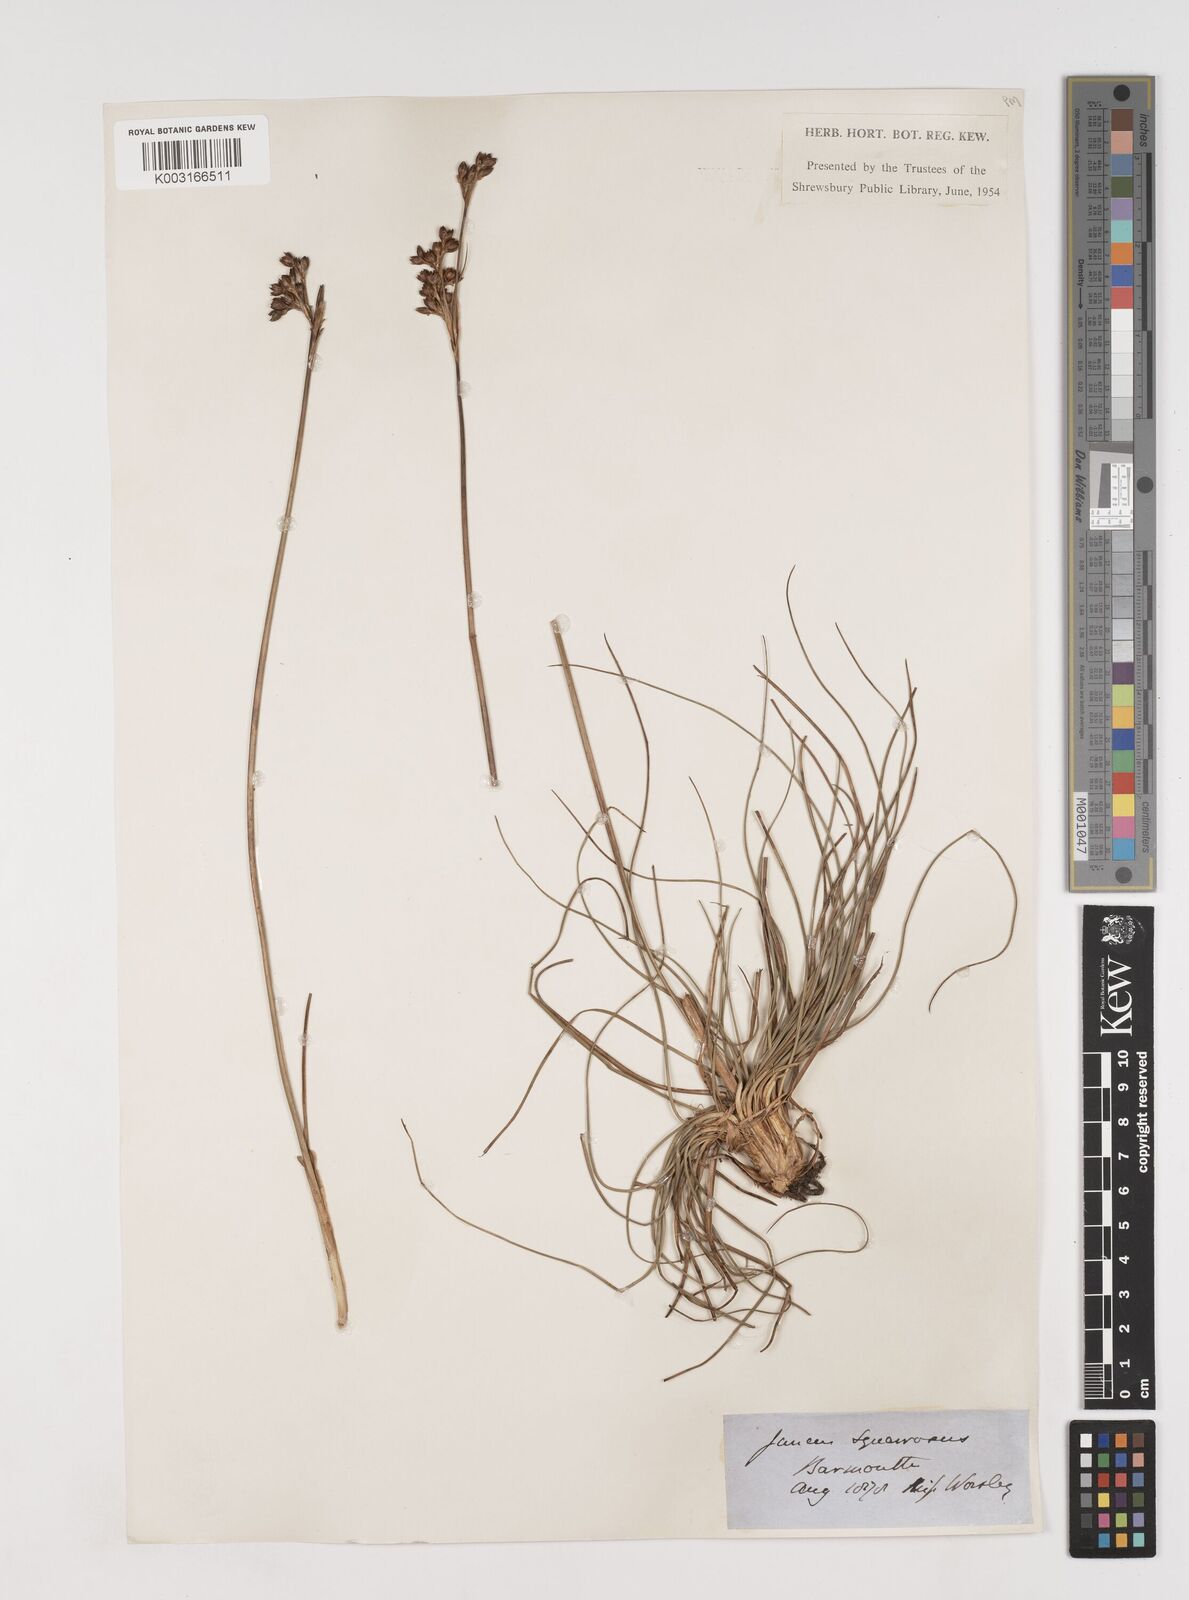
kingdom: Plantae
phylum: Tracheophyta
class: Liliopsida
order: Poales
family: Juncaceae
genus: Juncus
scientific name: Juncus squarrosus
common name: Heath rush
